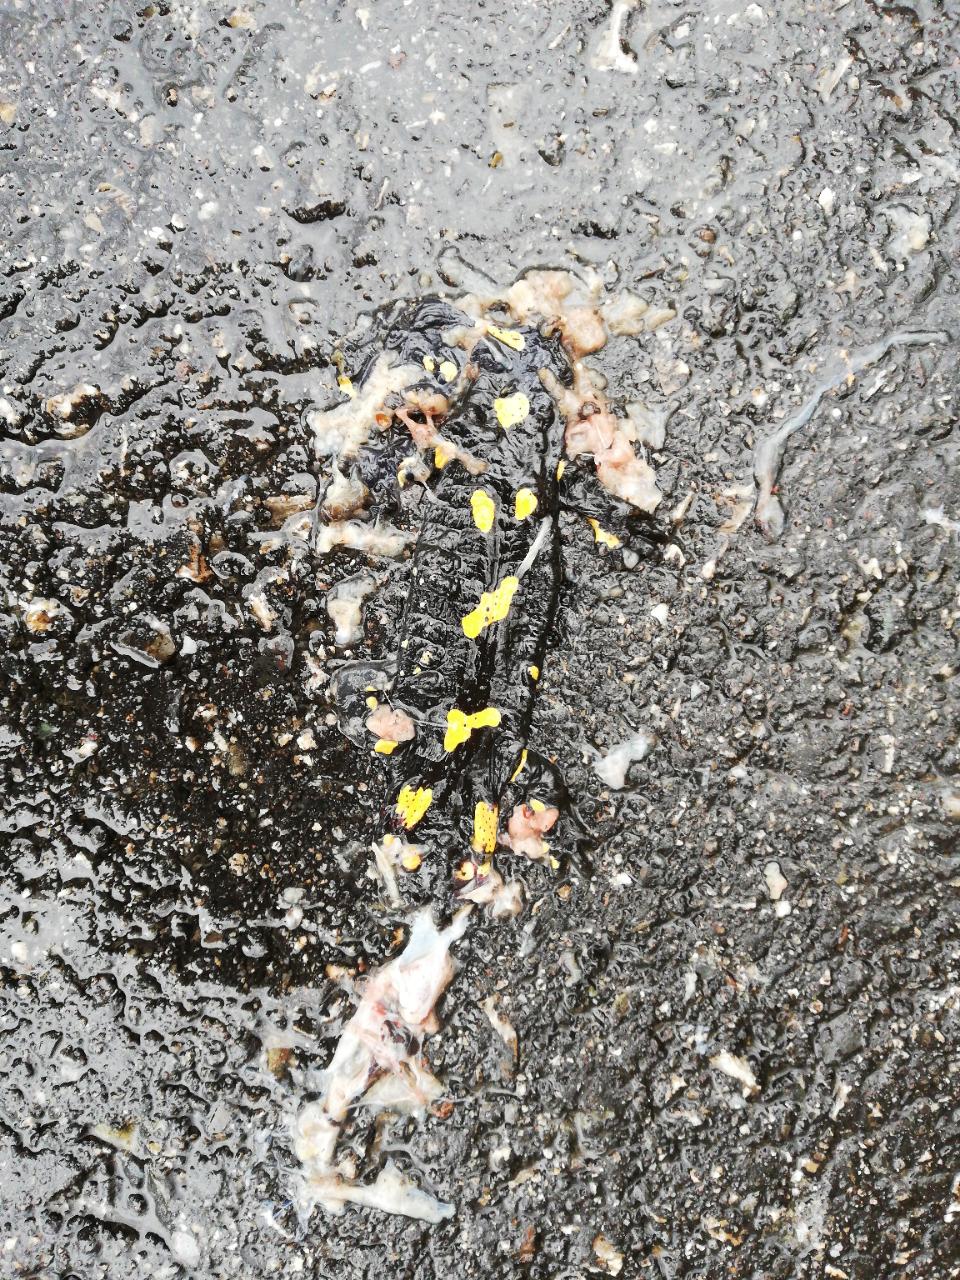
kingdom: Animalia
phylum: Chordata
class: Amphibia
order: Caudata
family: Salamandridae
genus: Salamandra
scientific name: Salamandra salamandra
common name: Fire salamander
